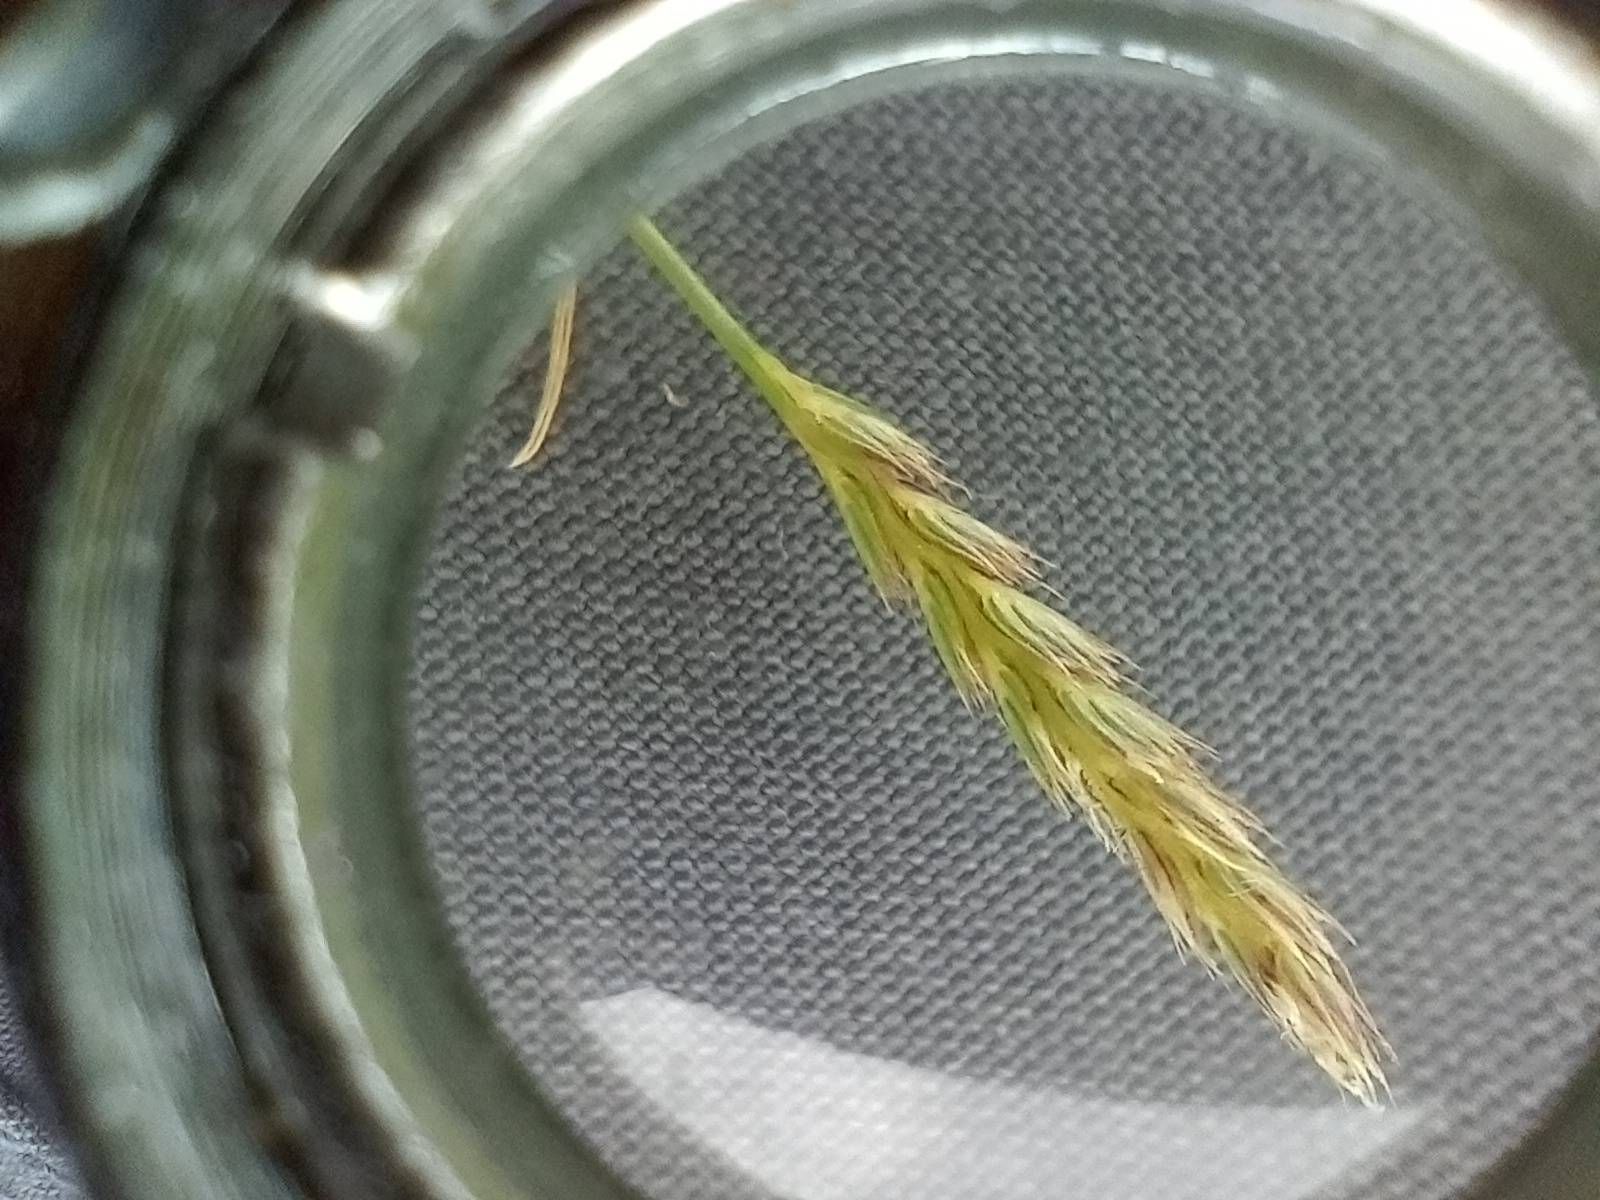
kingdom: Plantae
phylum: Tracheophyta
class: Liliopsida
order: Poales
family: Poaceae
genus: Cynosurus
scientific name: Cynosurus cristatus
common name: Kamgræs
